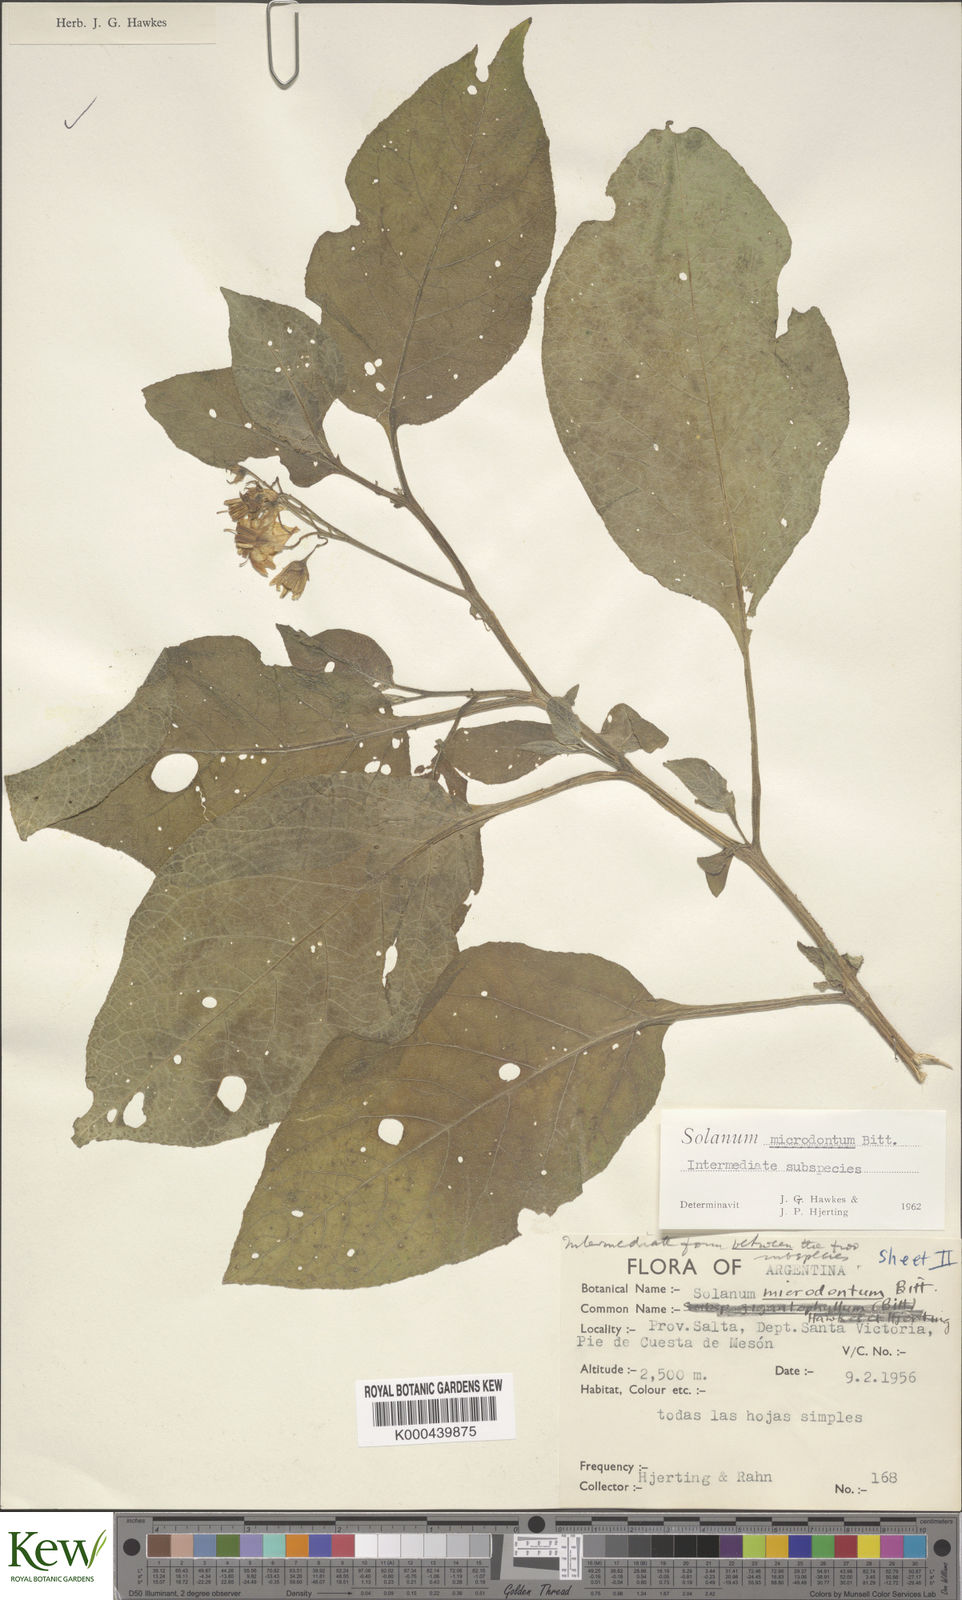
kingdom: Plantae
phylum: Tracheophyta
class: Magnoliopsida
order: Solanales
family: Solanaceae
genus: Solanum
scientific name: Solanum microdontum
